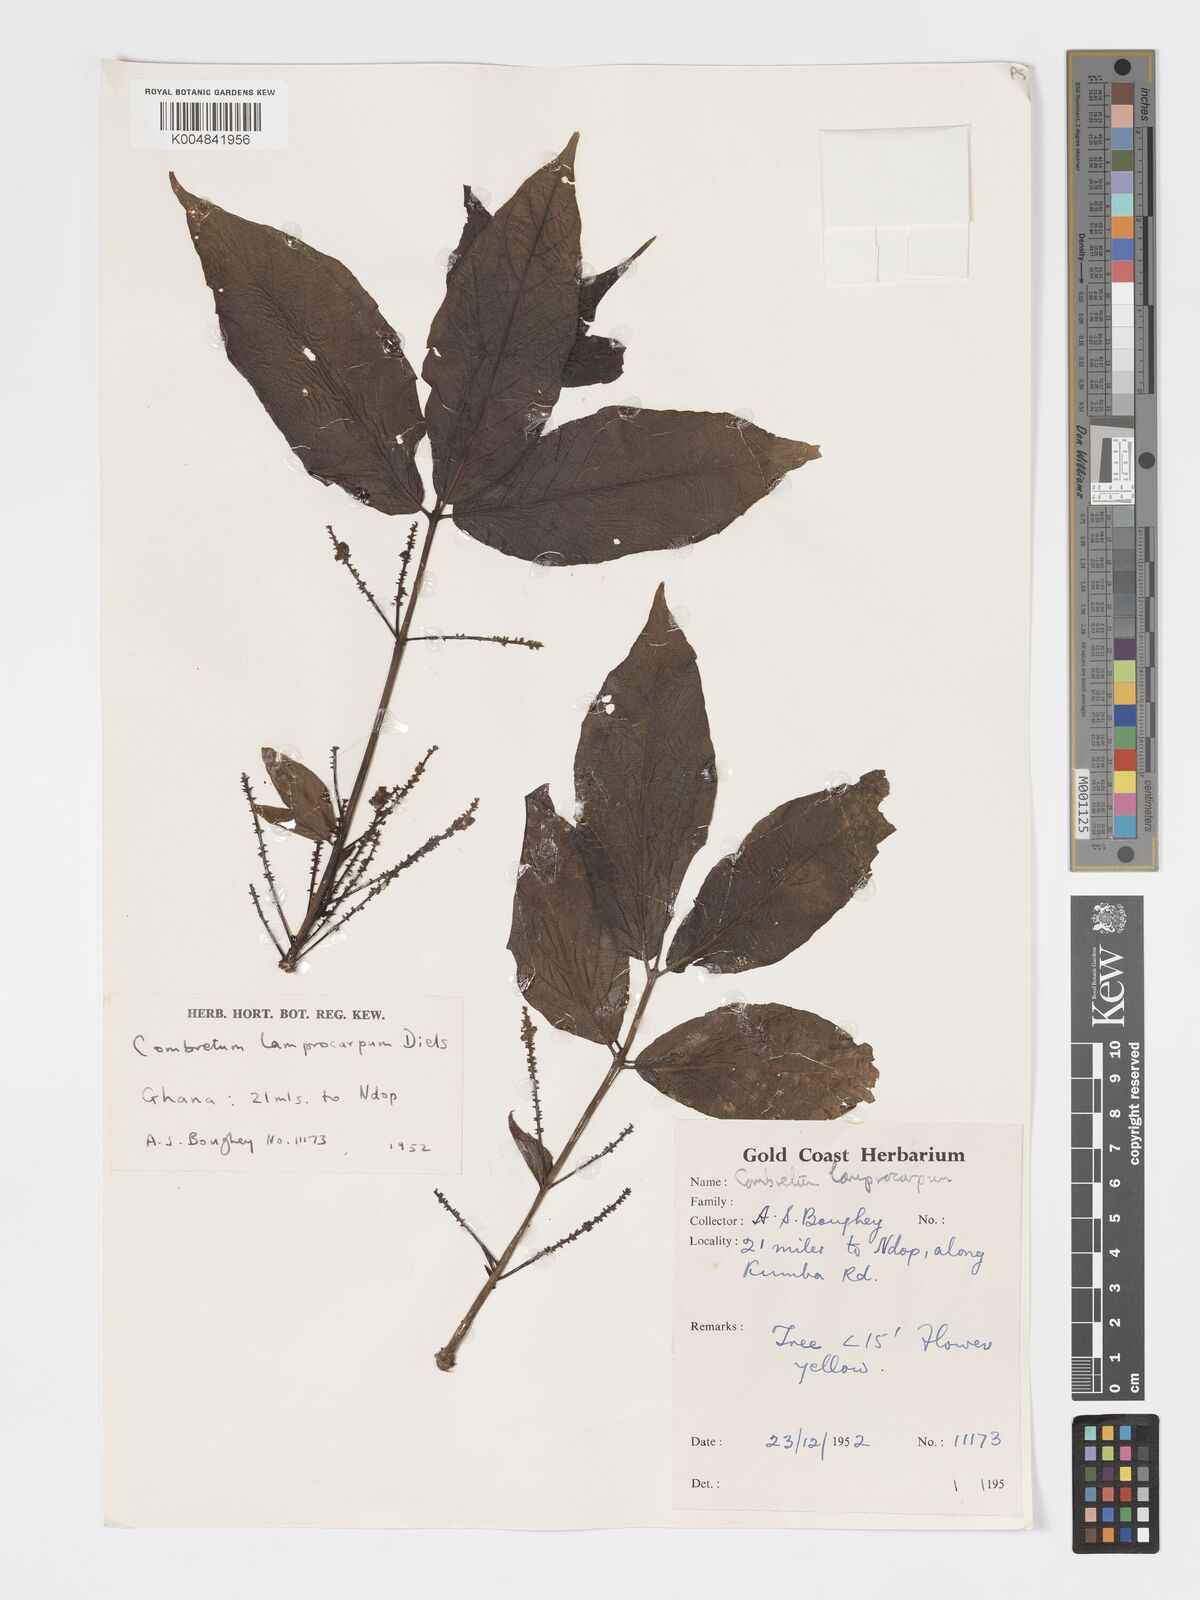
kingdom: Plantae
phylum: Tracheophyta
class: Magnoliopsida
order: Myrtales
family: Combretaceae
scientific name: Combretaceae
